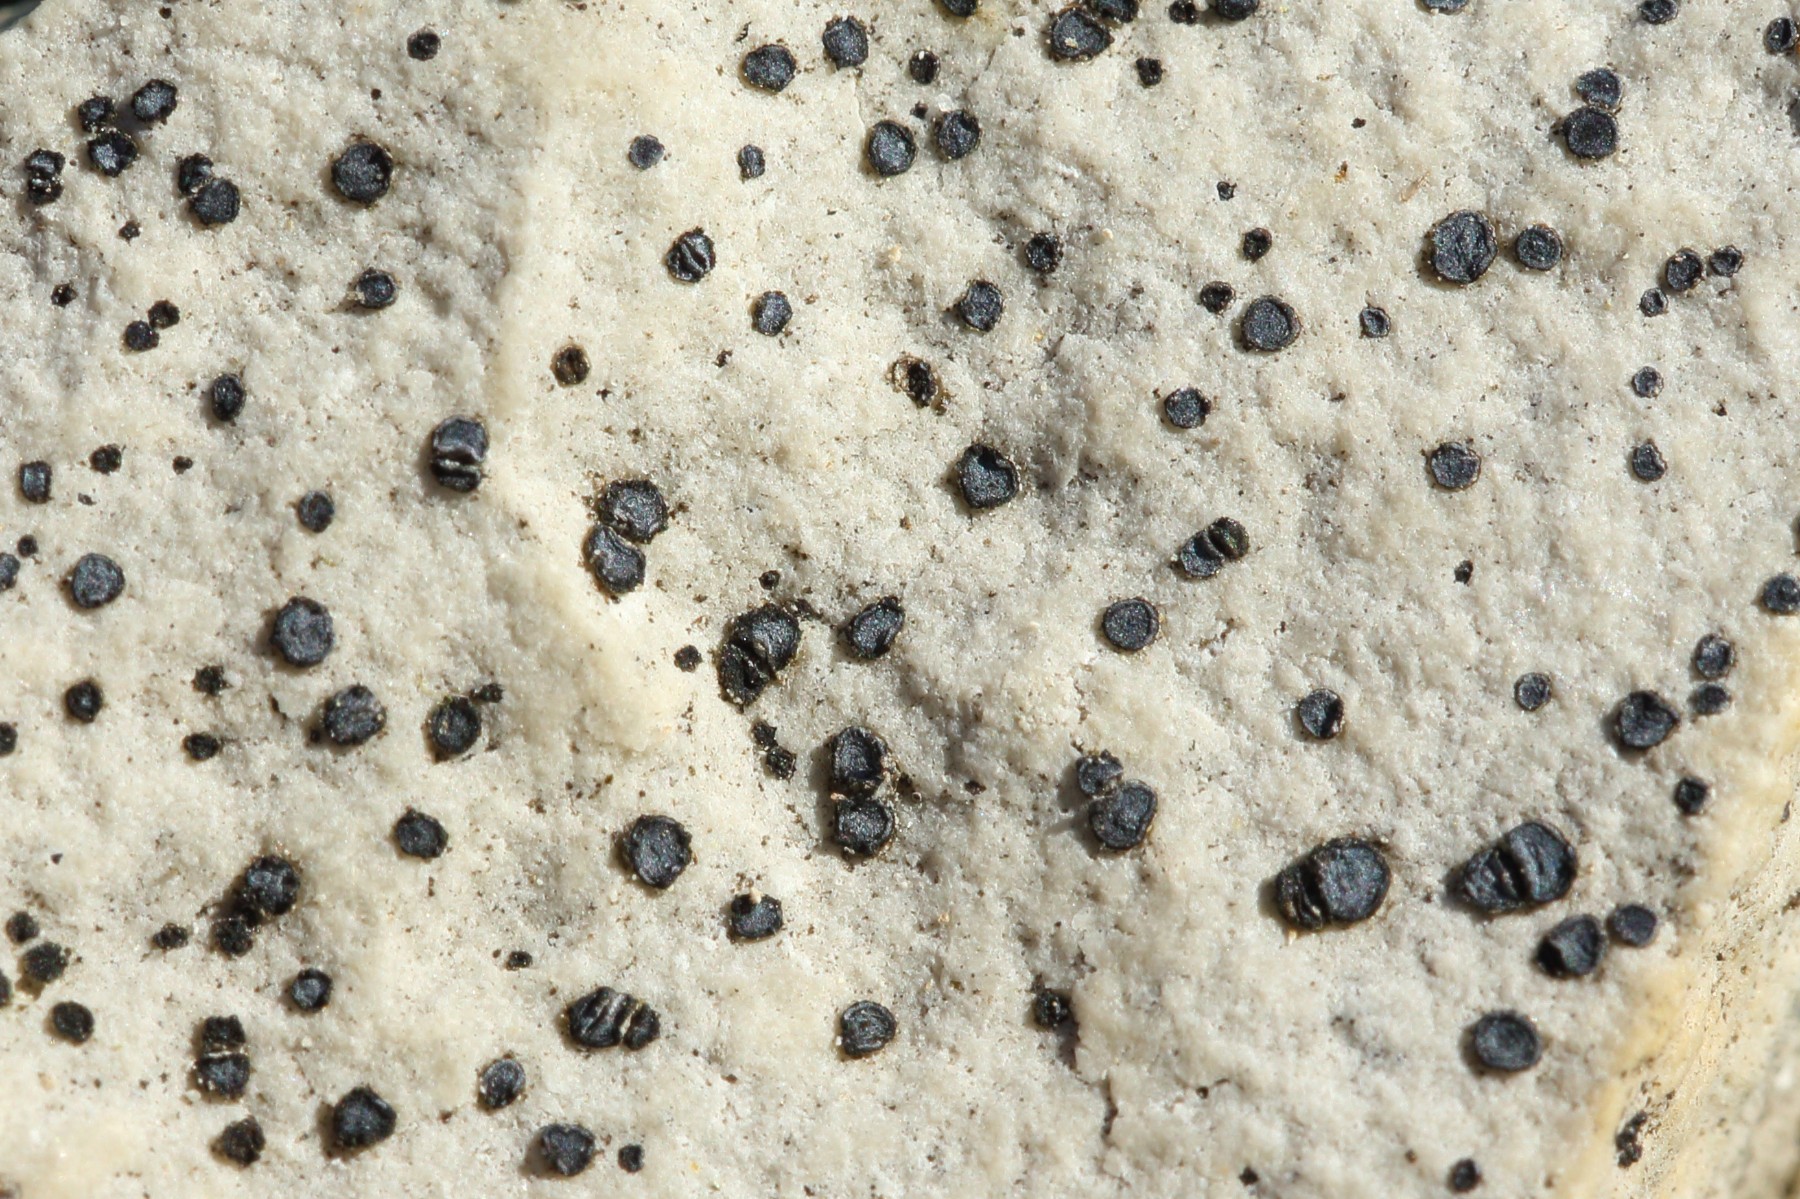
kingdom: Fungi
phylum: Ascomycota
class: Lecanoromycetes
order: Acarosporales
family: Acarosporaceae
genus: Sarcogyne
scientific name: Sarcogyne regularis
